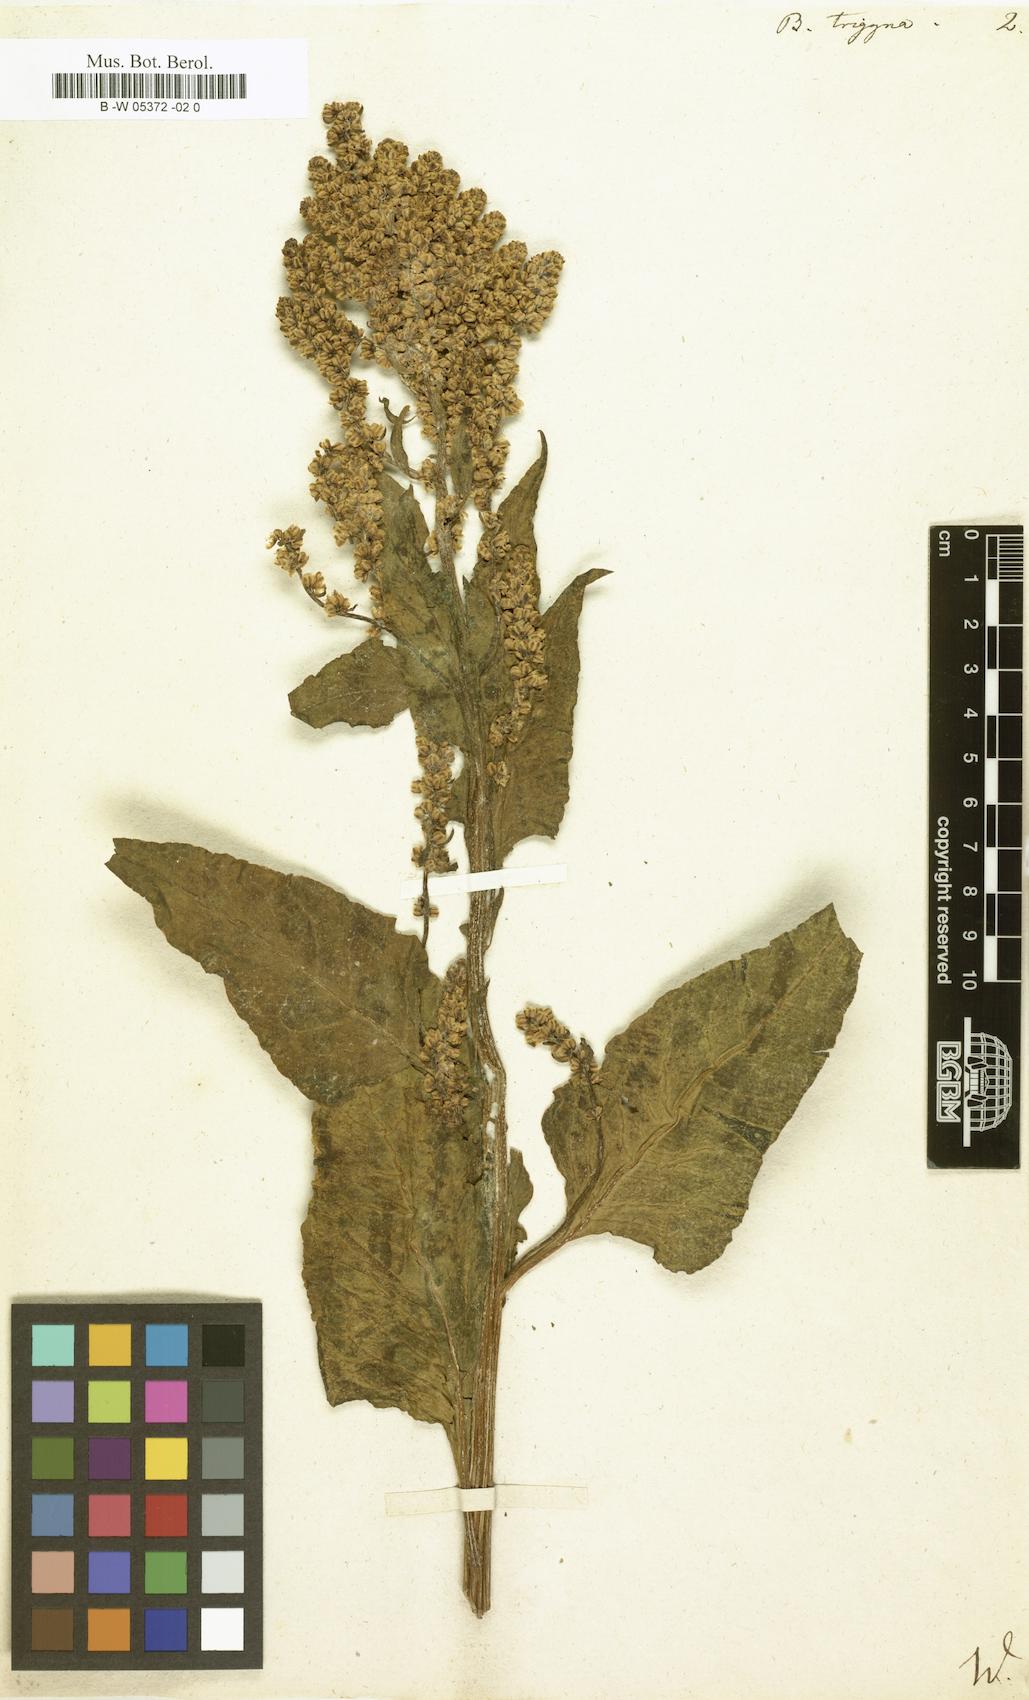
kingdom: Plantae
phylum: Tracheophyta
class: Magnoliopsida
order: Caryophyllales
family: Amaranthaceae
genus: Beta
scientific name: Beta trigyna
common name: Caucasian beet
